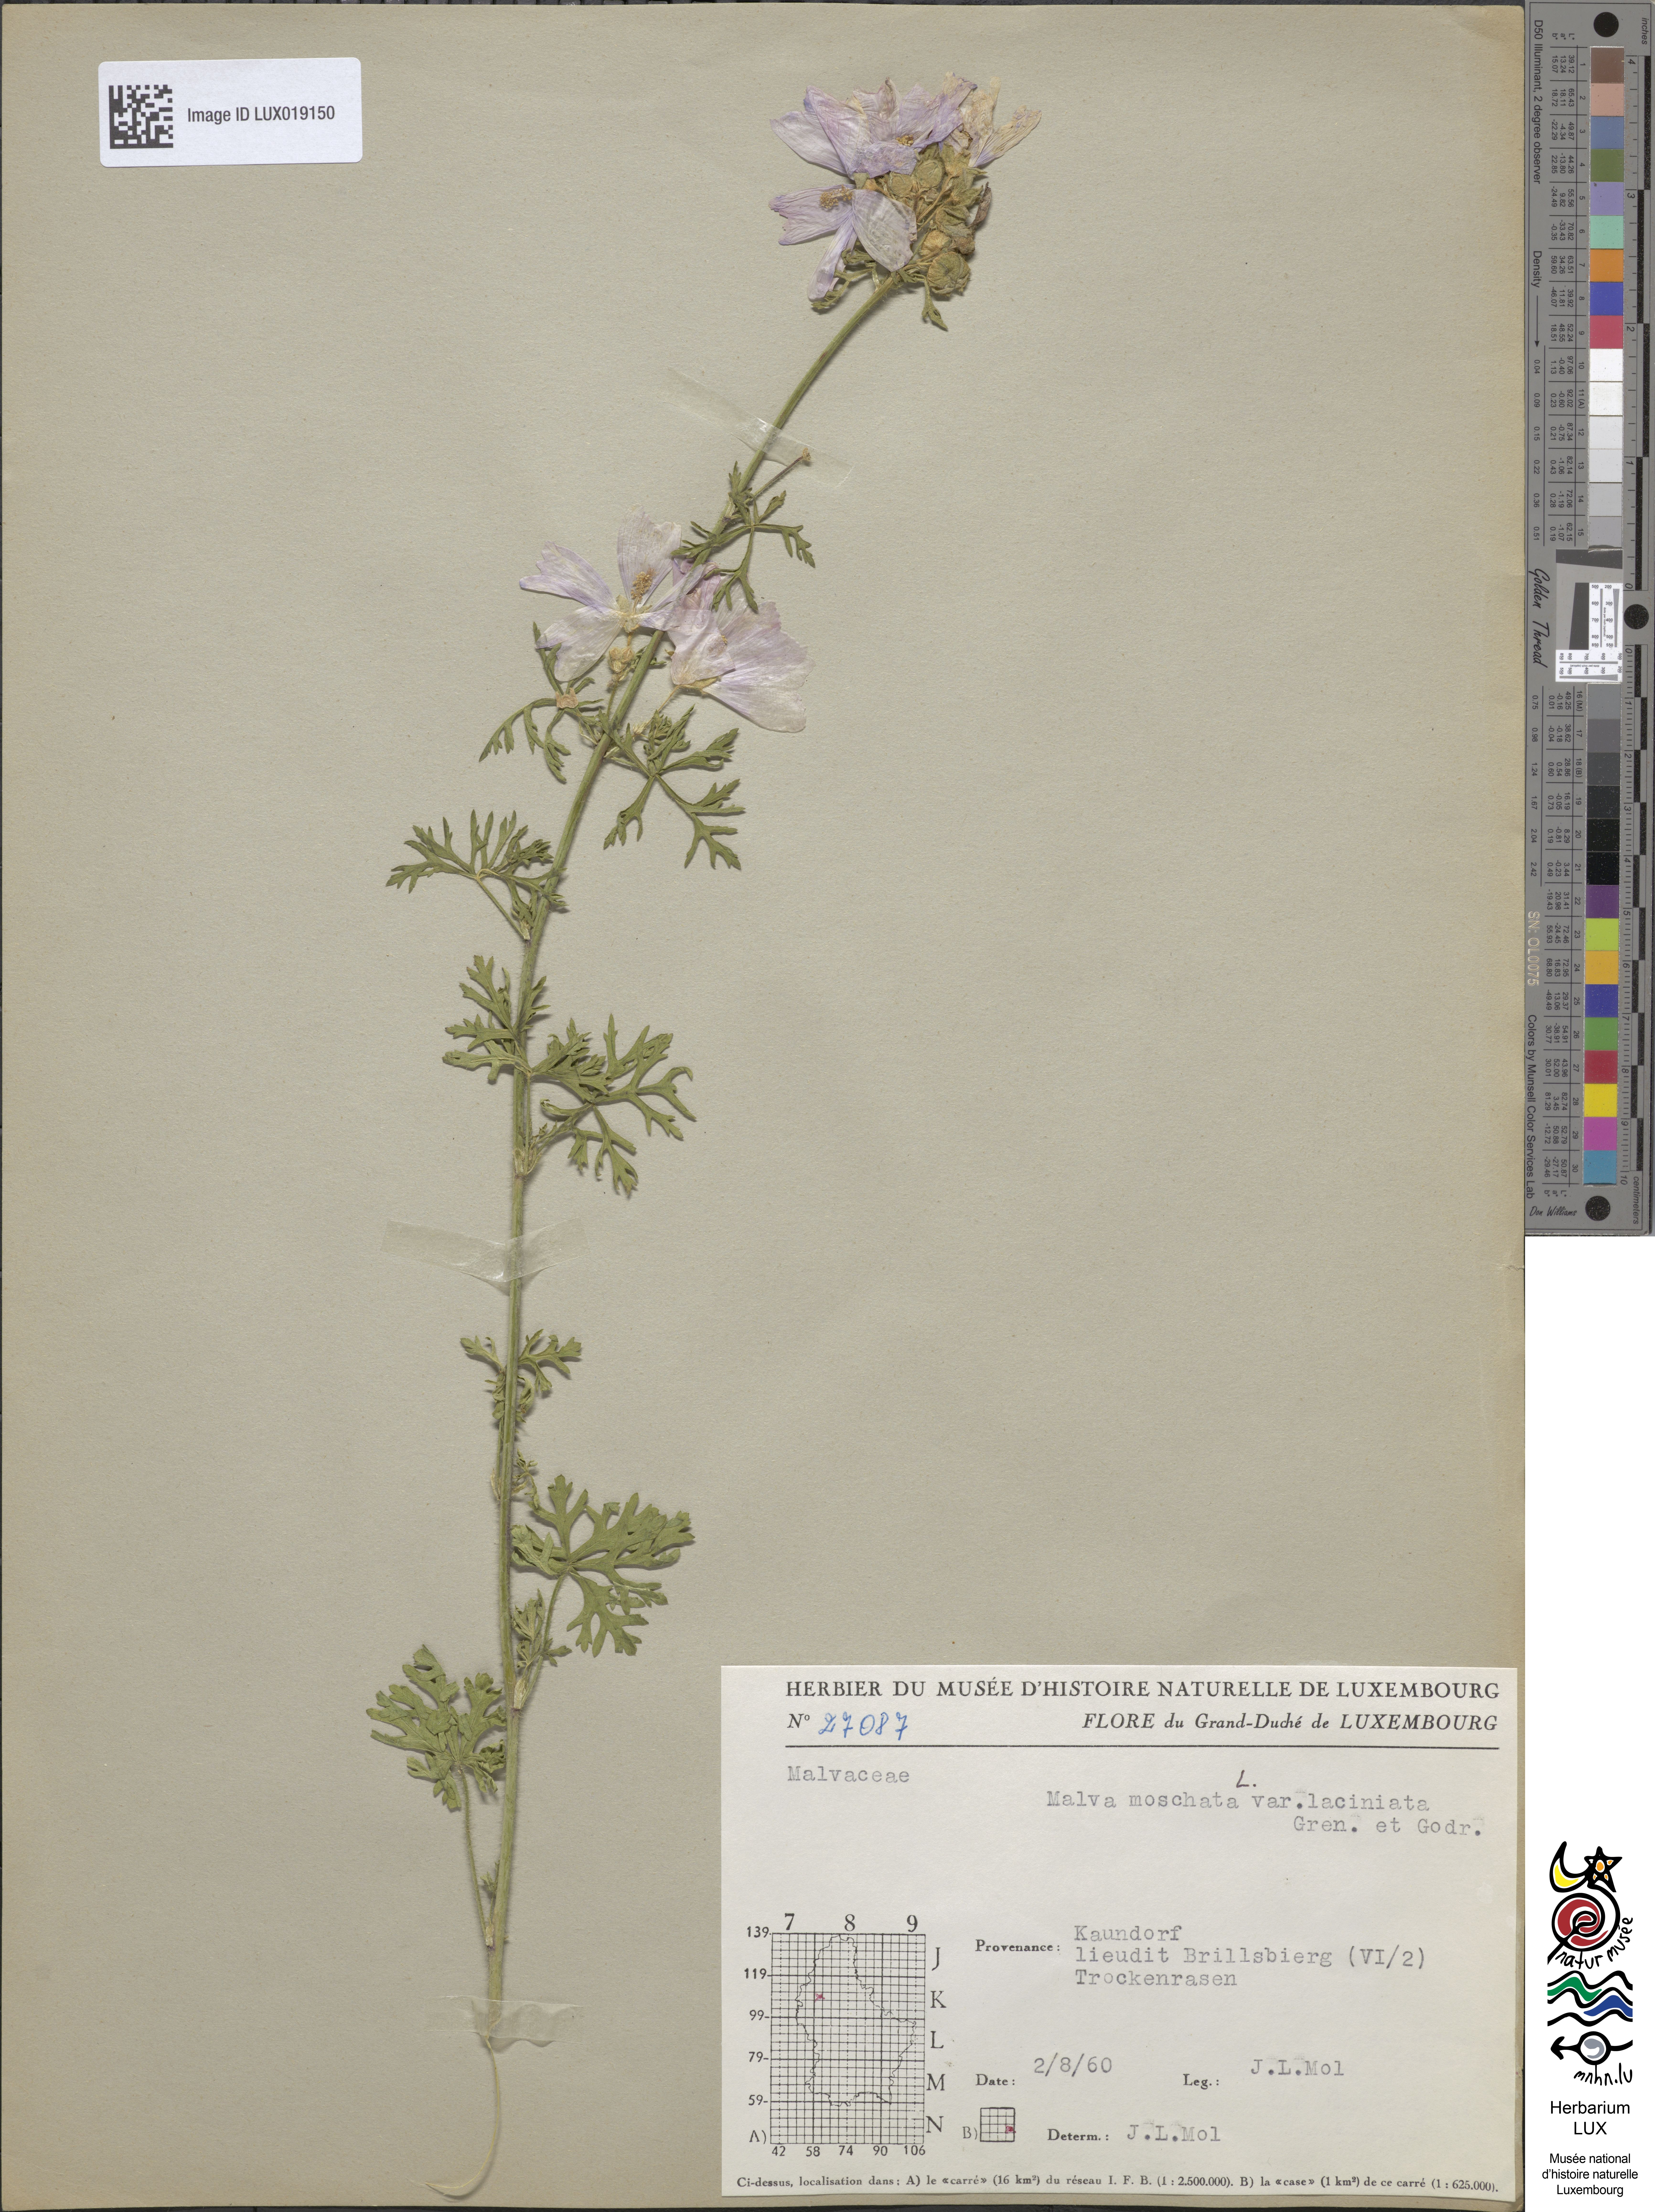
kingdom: Plantae
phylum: Tracheophyta
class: Magnoliopsida
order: Malvales
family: Malvaceae
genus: Malva
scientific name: Malva moschata
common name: Musk mallow
